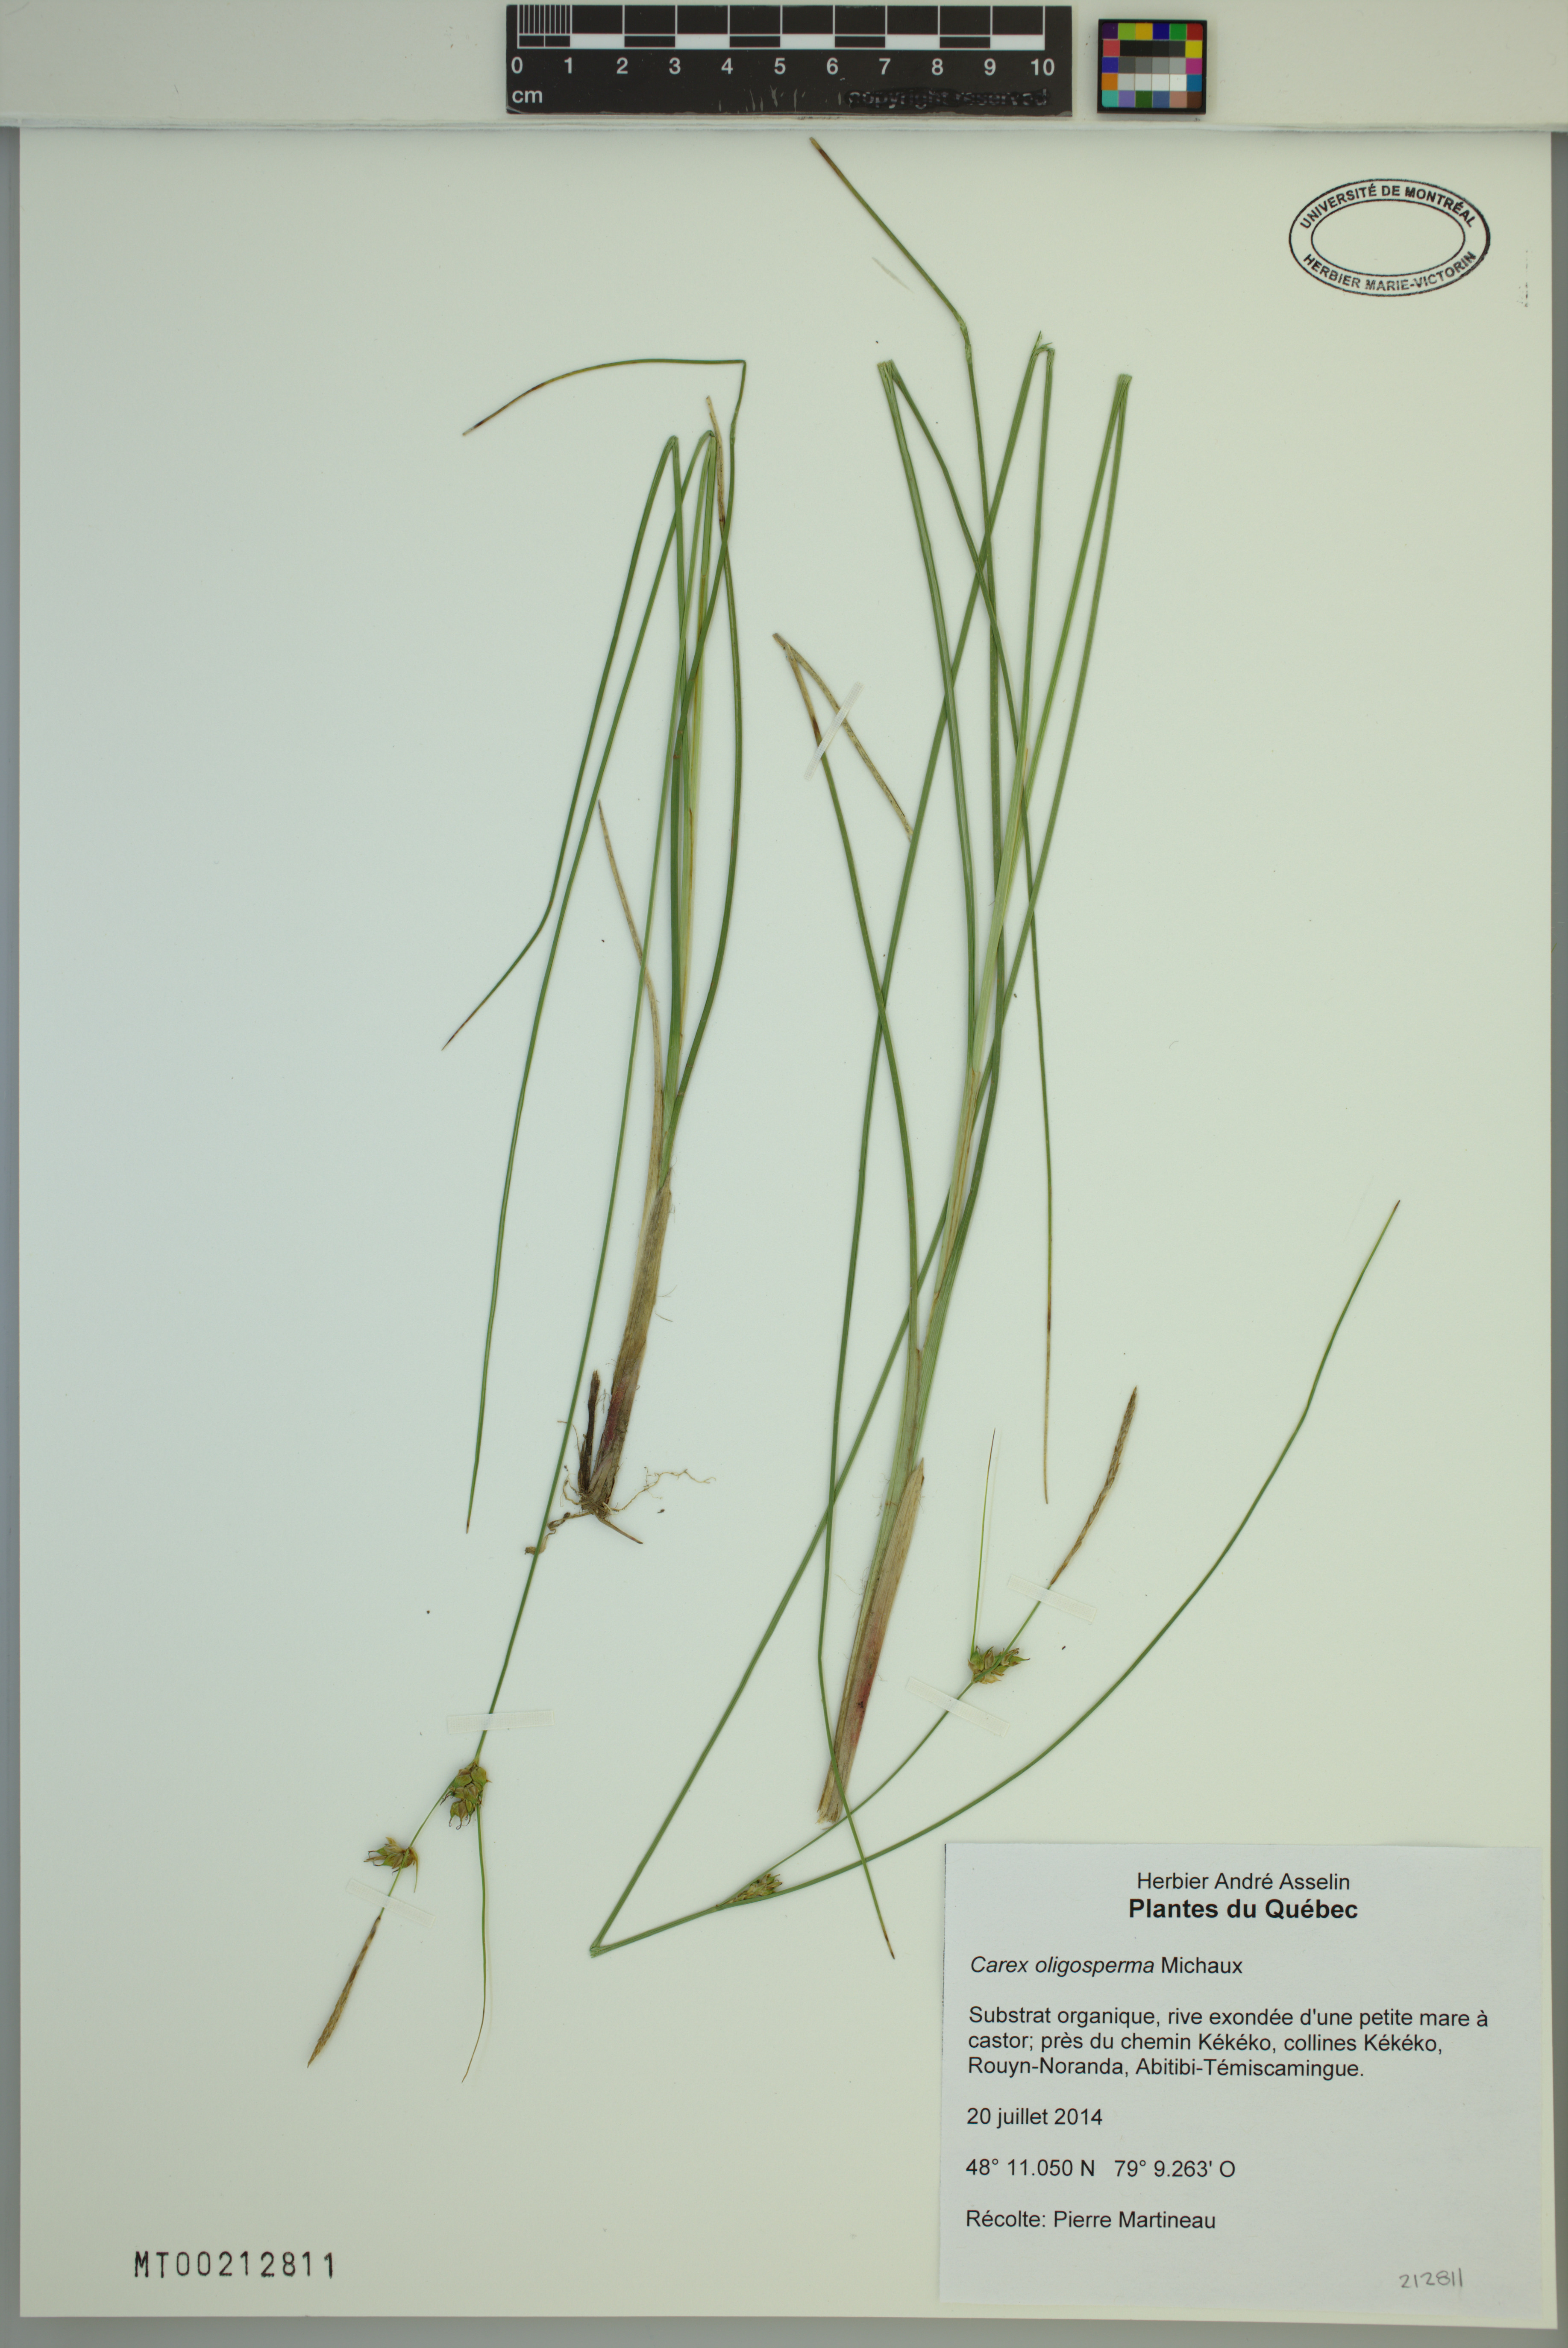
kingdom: Plantae
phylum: Tracheophyta
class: Liliopsida
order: Poales
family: Cyperaceae
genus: Carex
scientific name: Carex oligosperma
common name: Few-seed sedge
